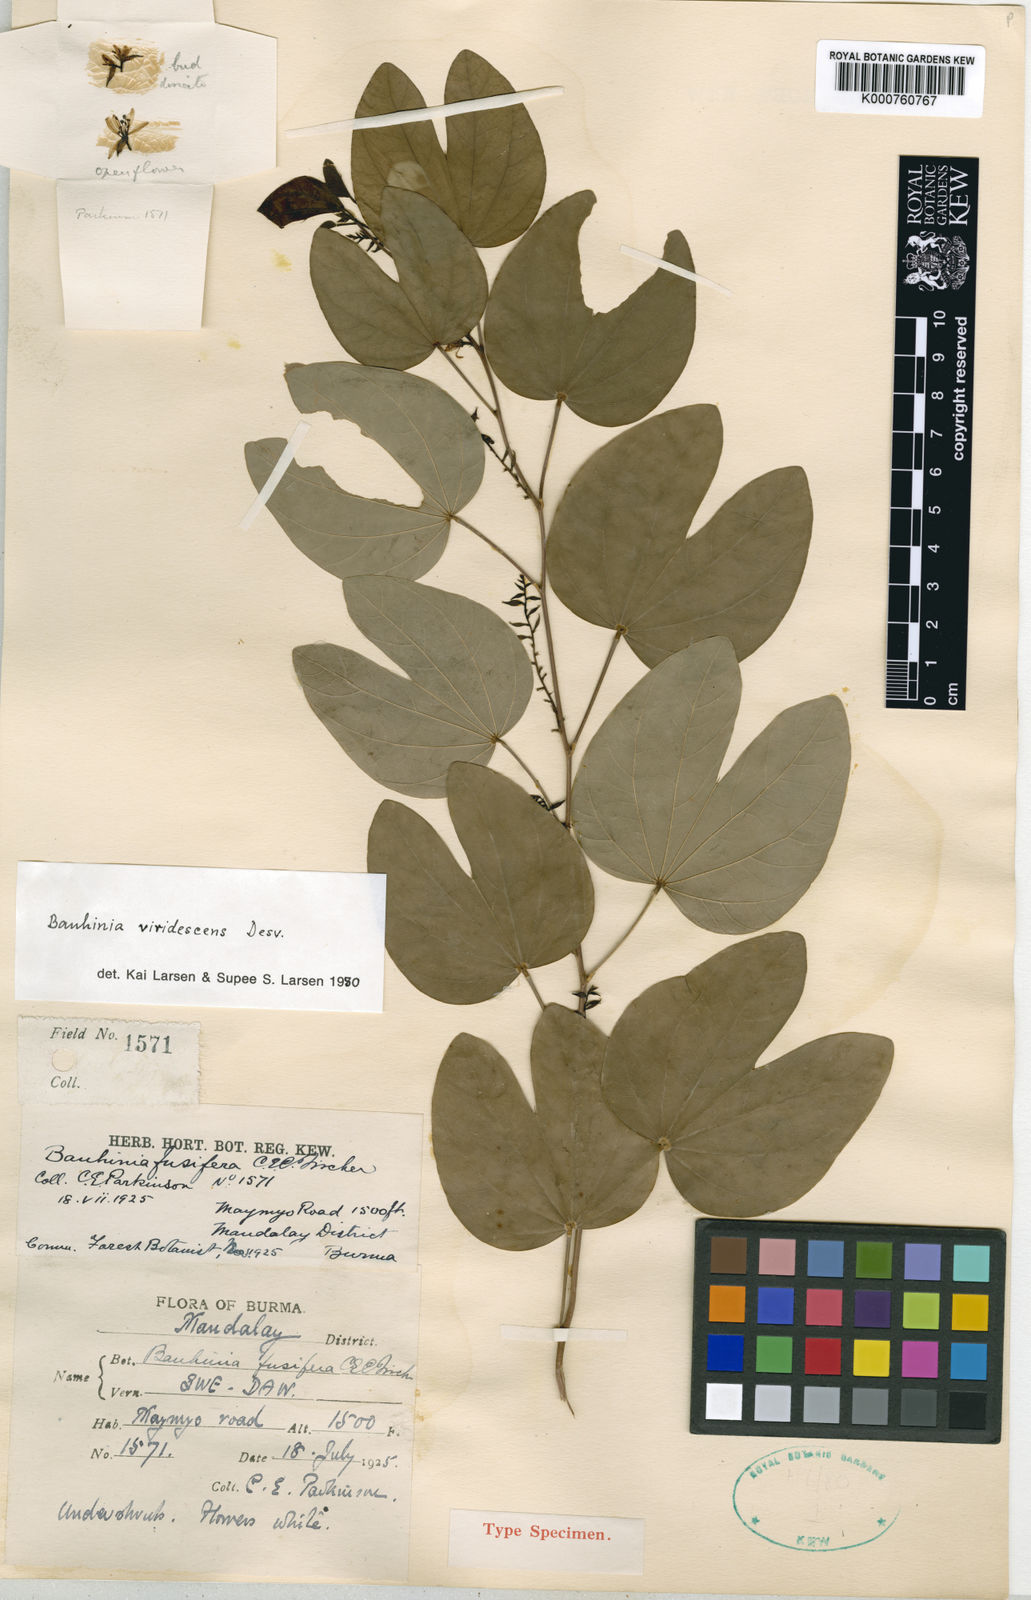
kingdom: Plantae
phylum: Tracheophyta
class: Magnoliopsida
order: Fabales
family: Fabaceae
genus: Bauhinia
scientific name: Bauhinia viridescens
